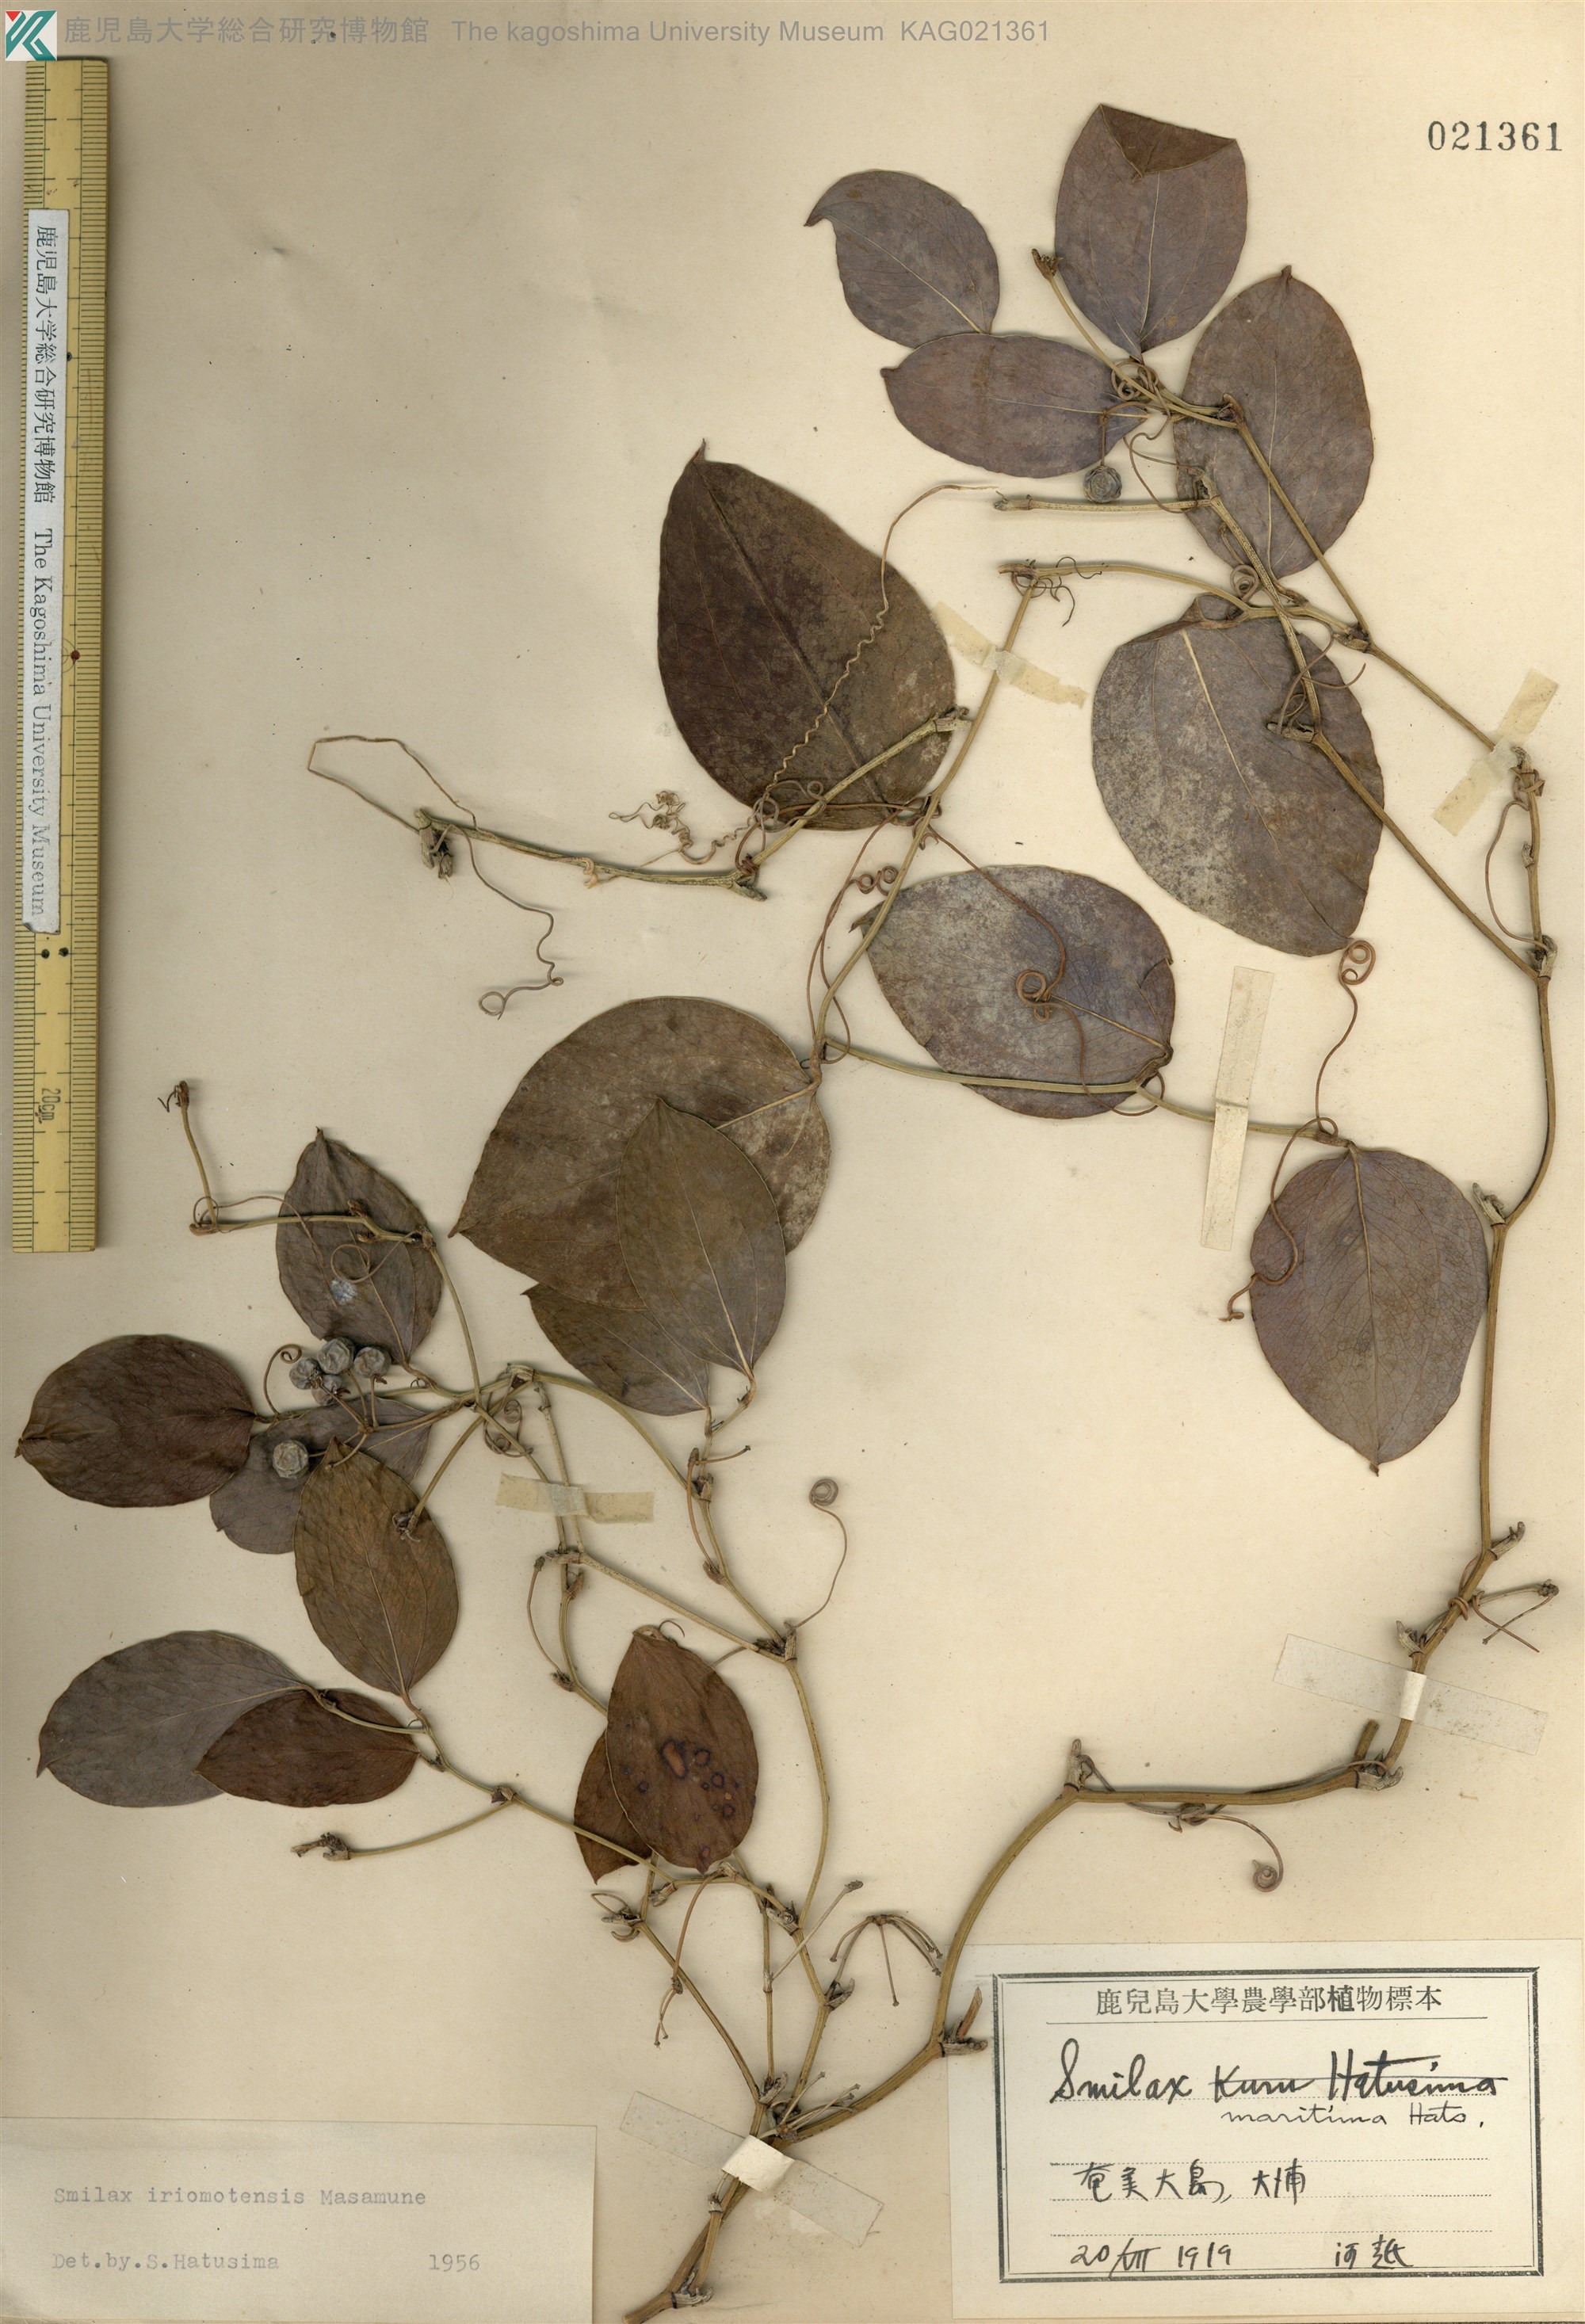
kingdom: Plantae
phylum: Tracheophyta
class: Liliopsida
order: Liliales
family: Smilacaceae
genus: Smilax
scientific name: Smilax sebeana
